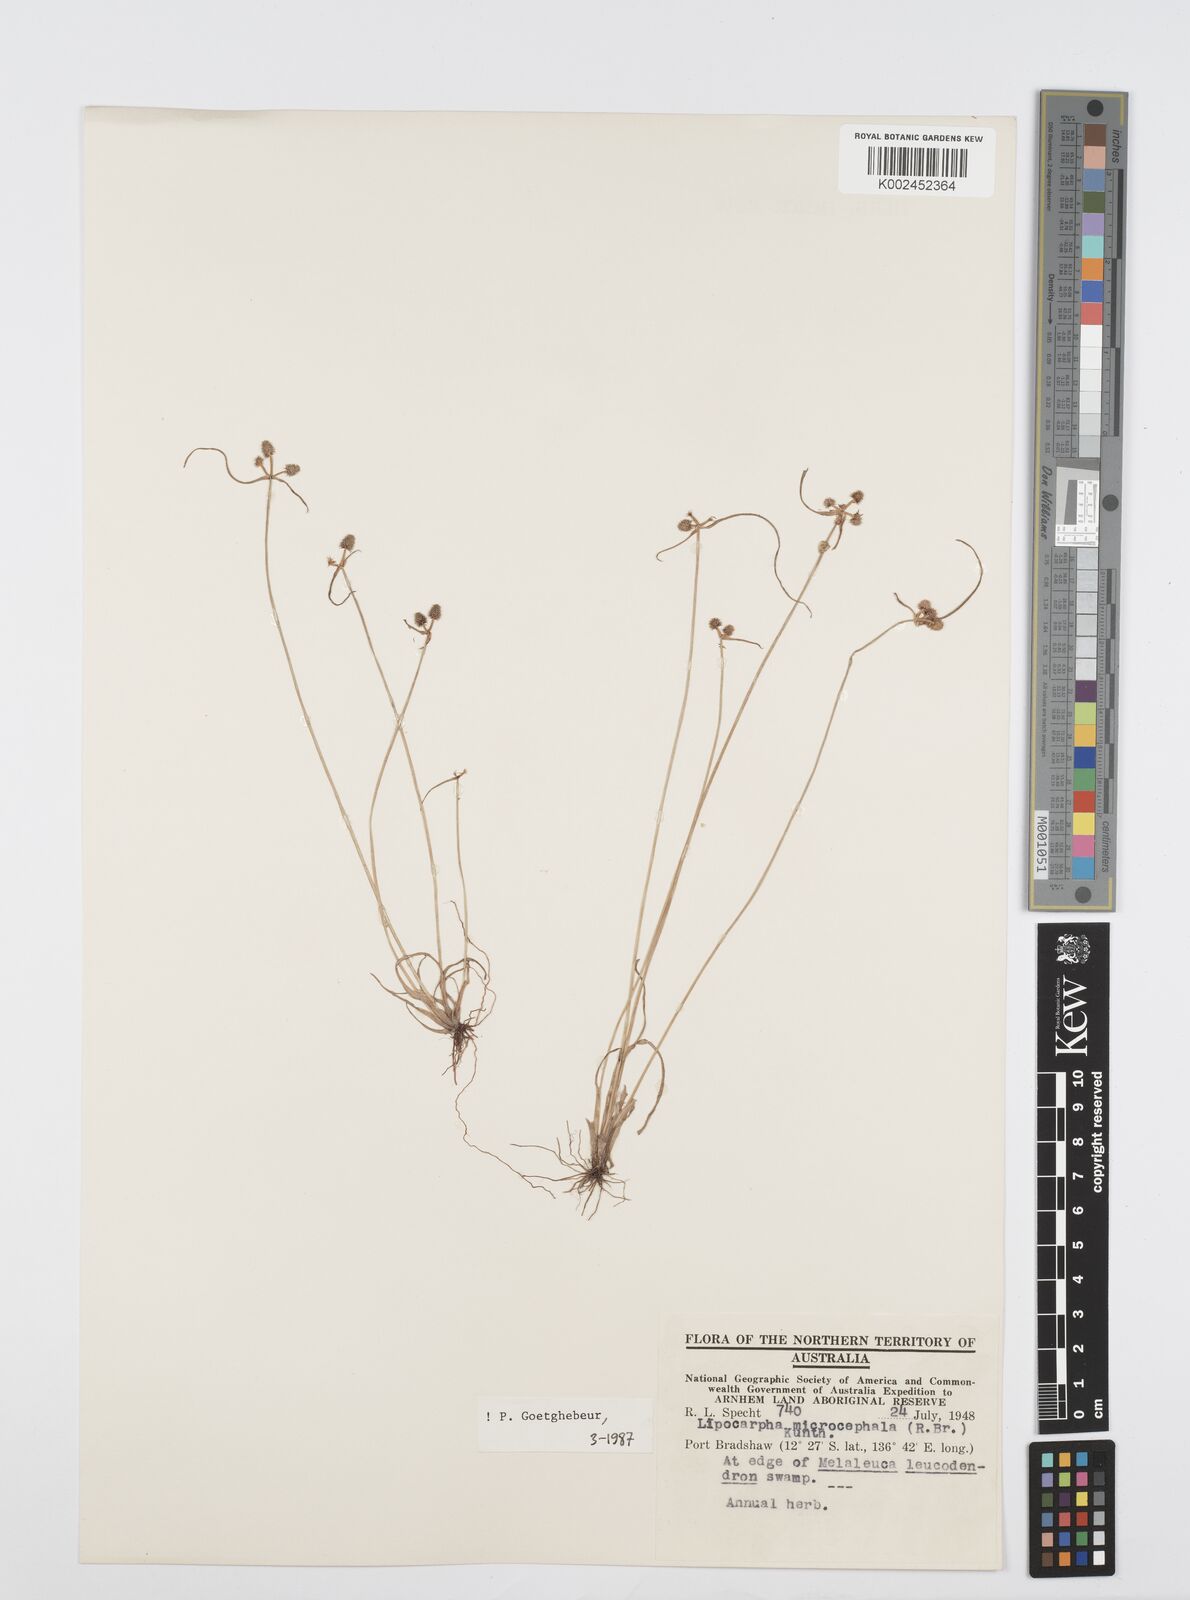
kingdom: Plantae
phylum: Tracheophyta
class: Liliopsida
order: Poales
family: Cyperaceae
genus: Cyperus
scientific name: Cyperus microcephalus
